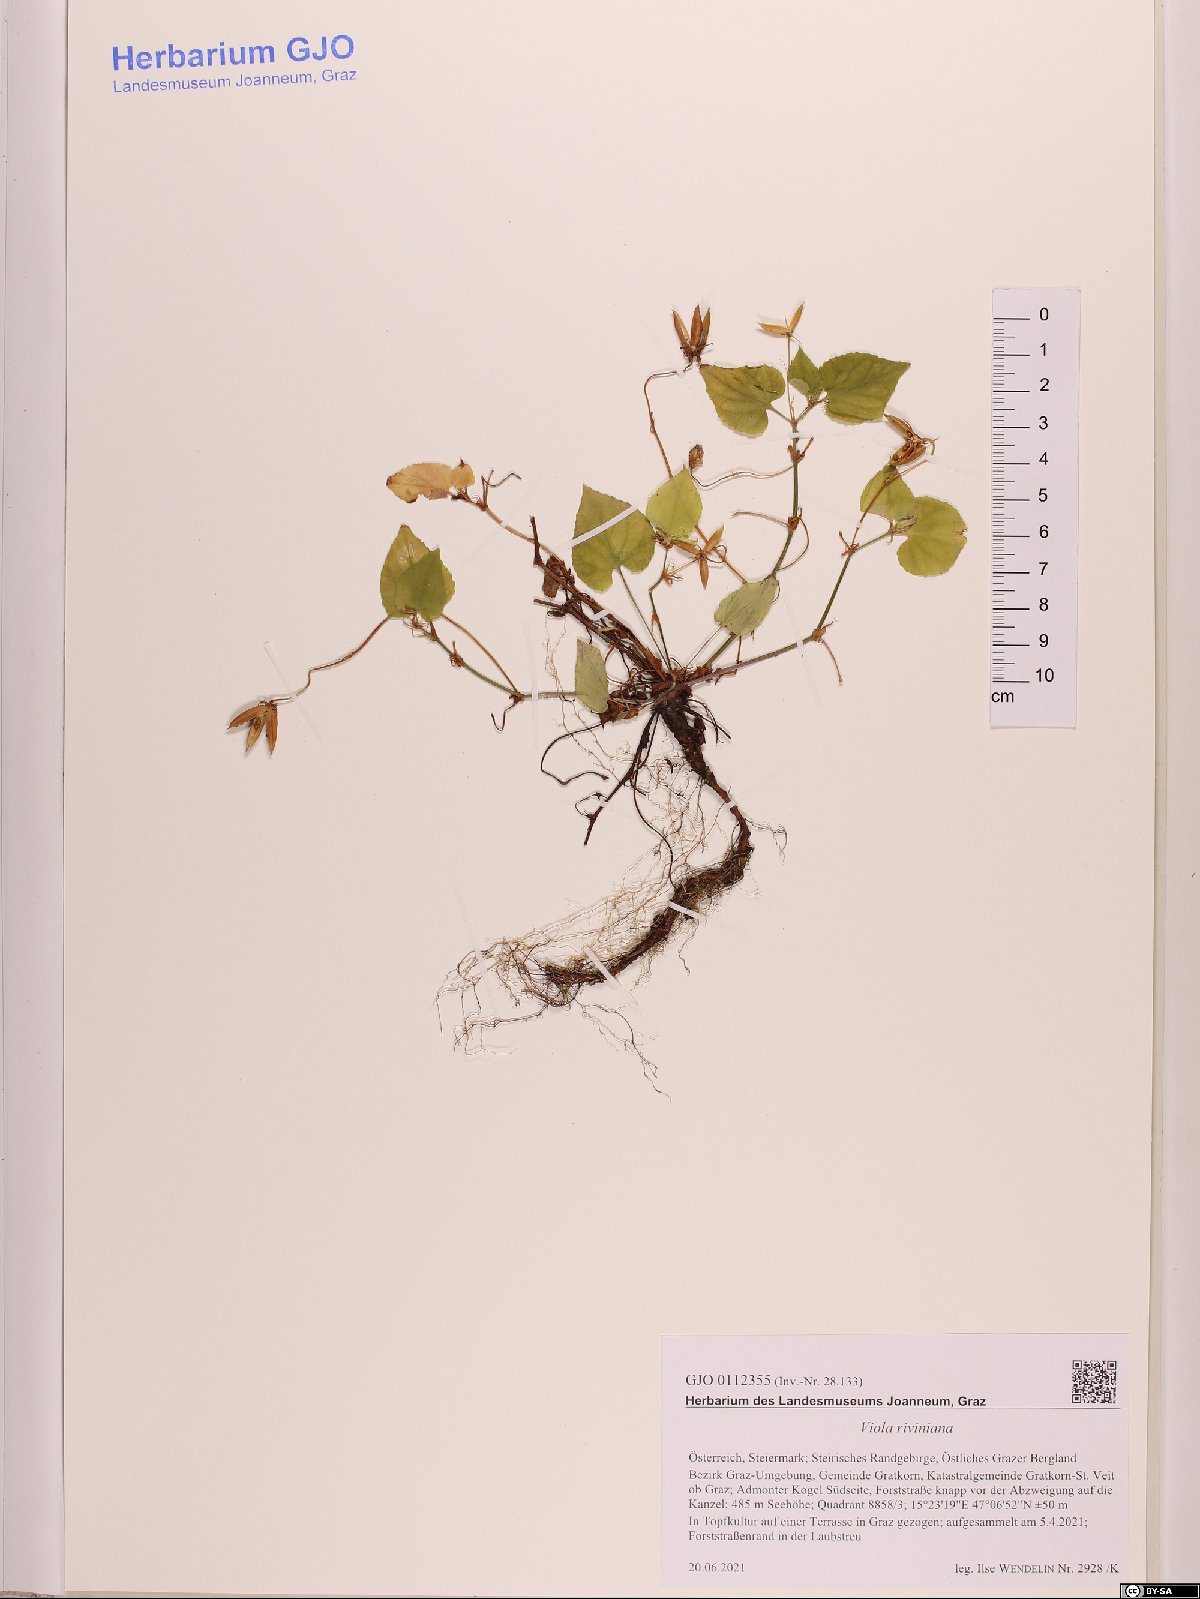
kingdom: Plantae
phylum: Tracheophyta
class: Magnoliopsida
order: Malpighiales
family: Violaceae
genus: Viola
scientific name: Viola riviniana
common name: Common dog-violet
